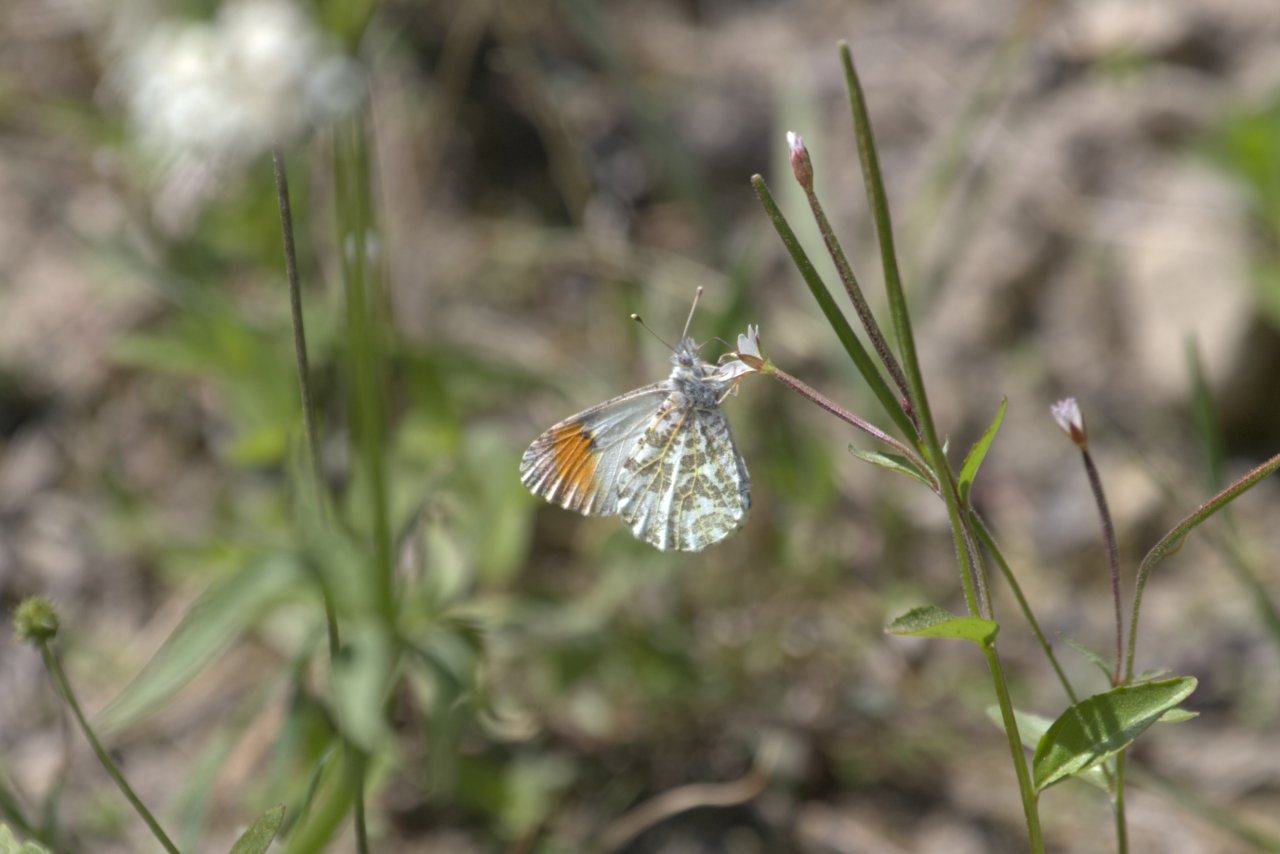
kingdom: Animalia
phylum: Arthropoda
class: Insecta
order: Lepidoptera
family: Pieridae
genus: Anthocharis
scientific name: Anthocharis sara
